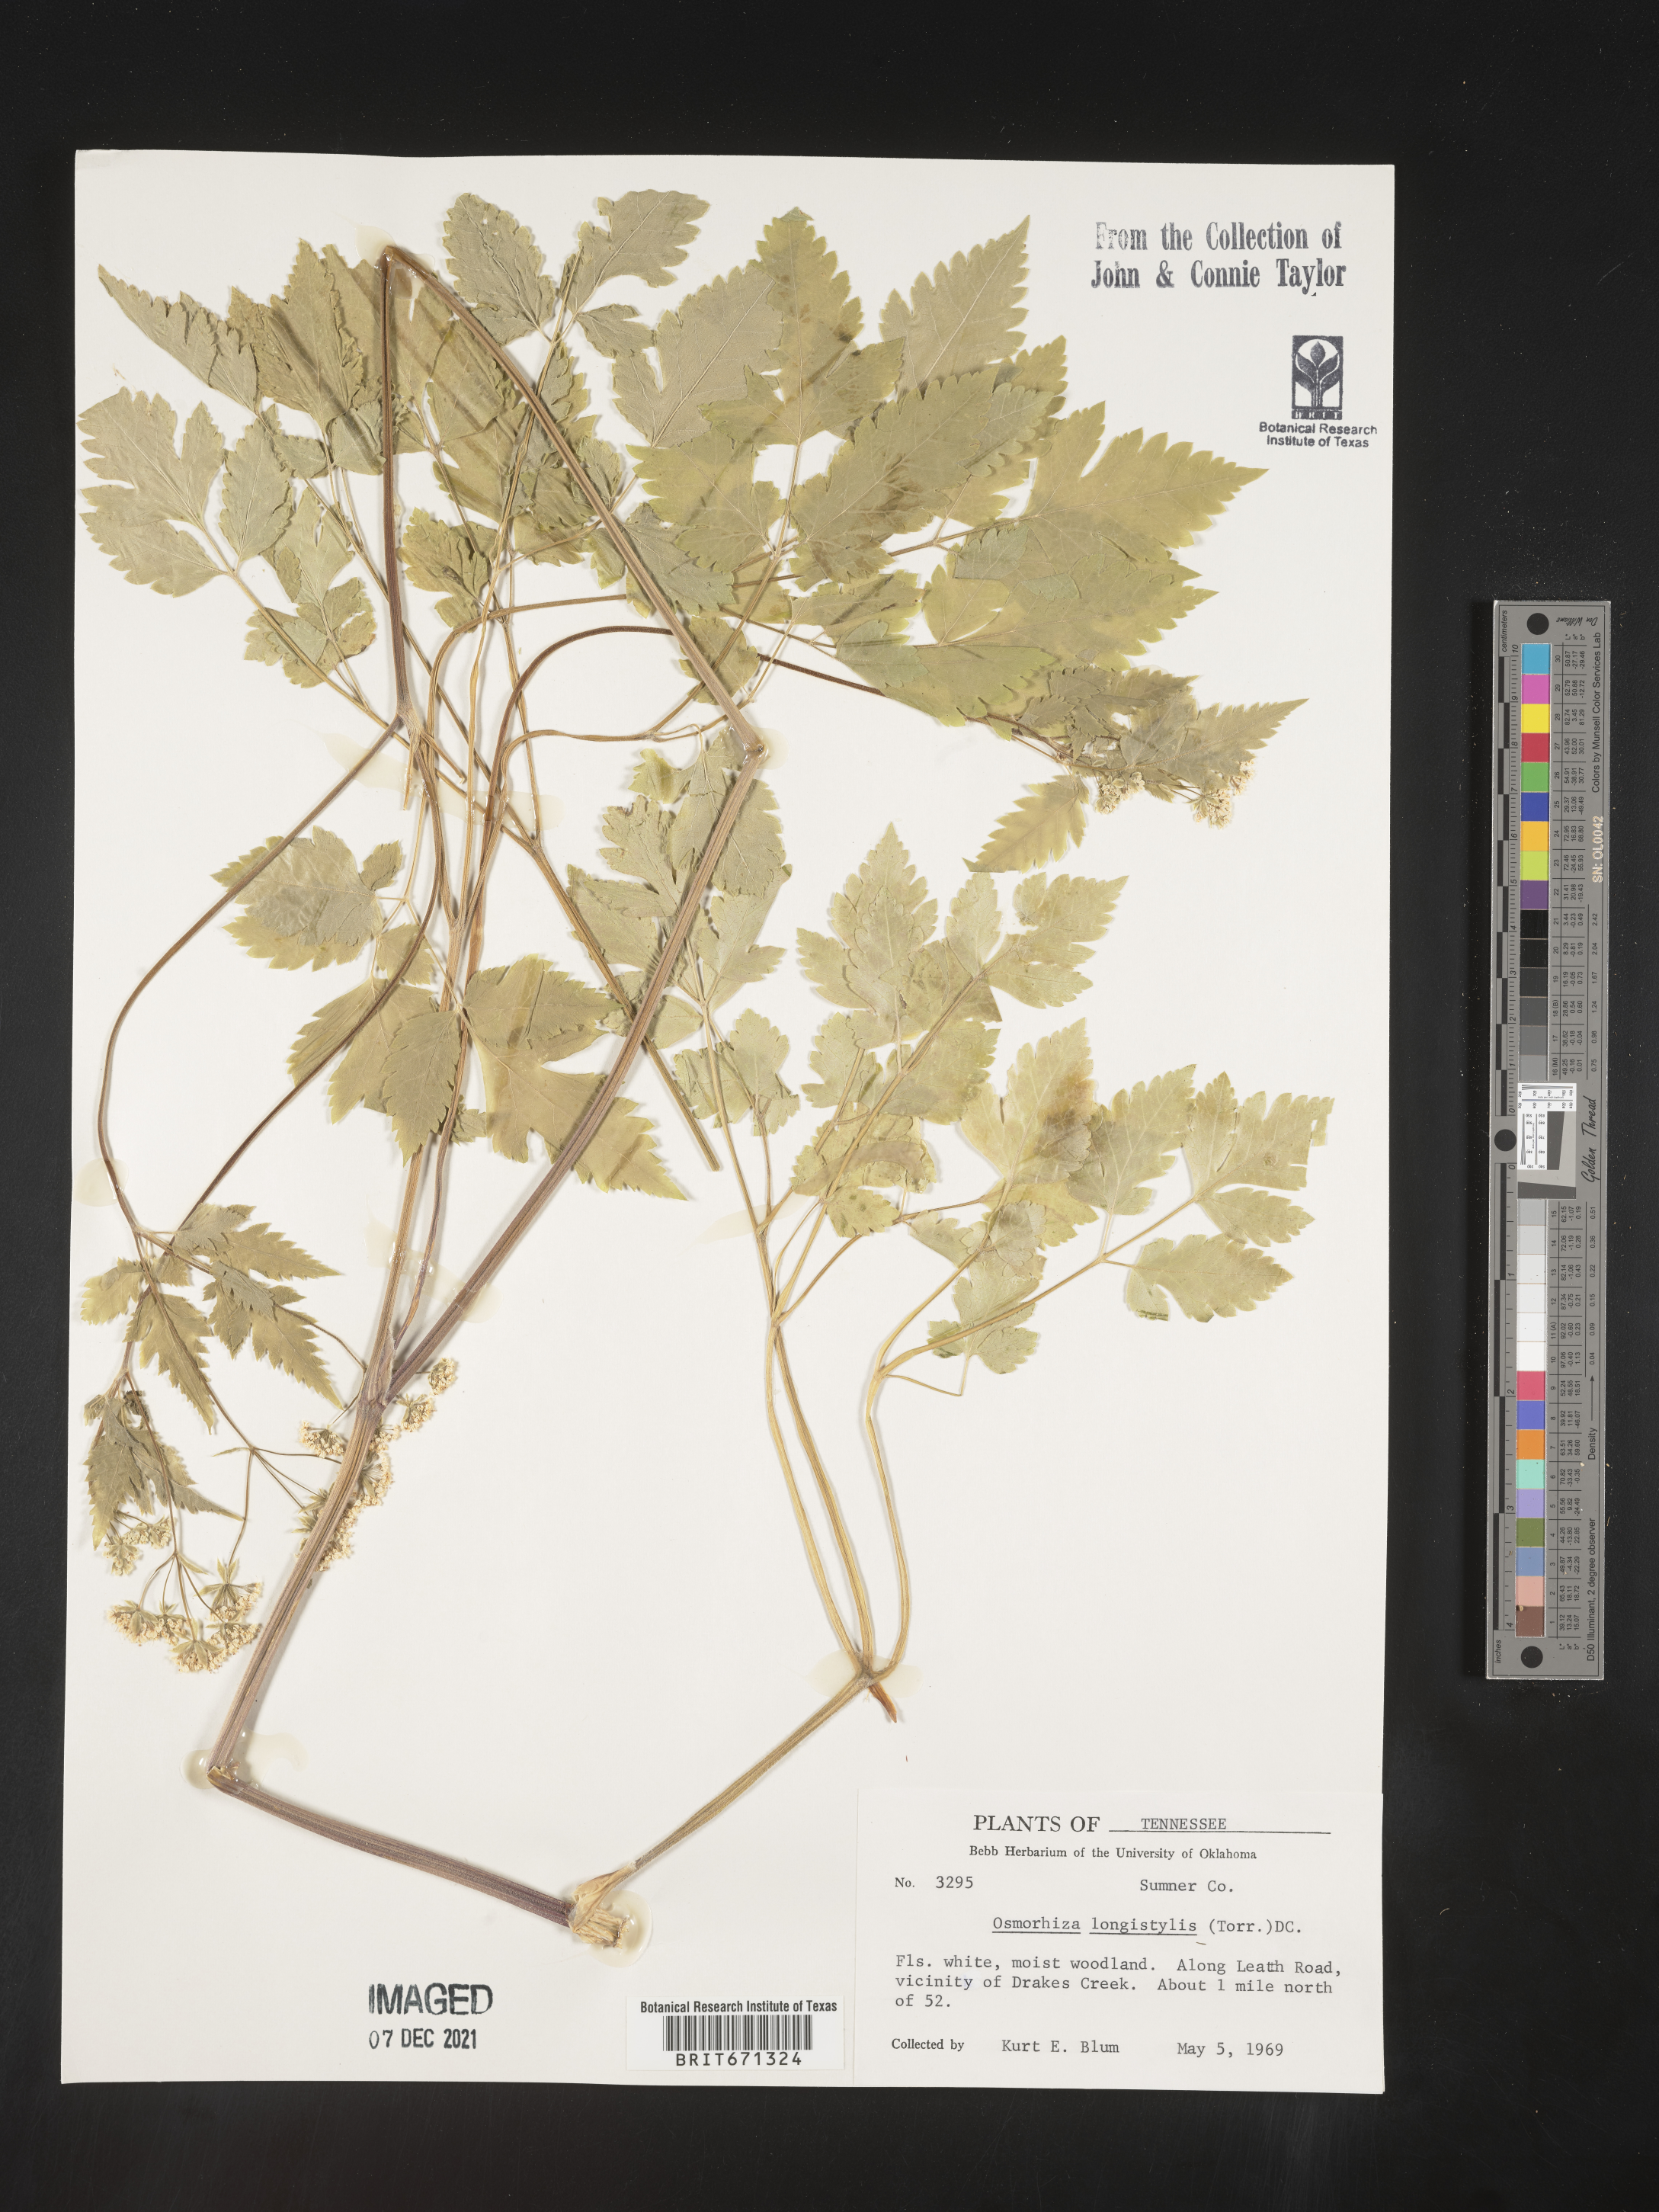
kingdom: Plantae
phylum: Tracheophyta
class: Magnoliopsida
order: Apiales
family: Apiaceae
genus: Osmorhiza
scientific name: Osmorhiza longistylis
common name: Smooth sweet cicely
